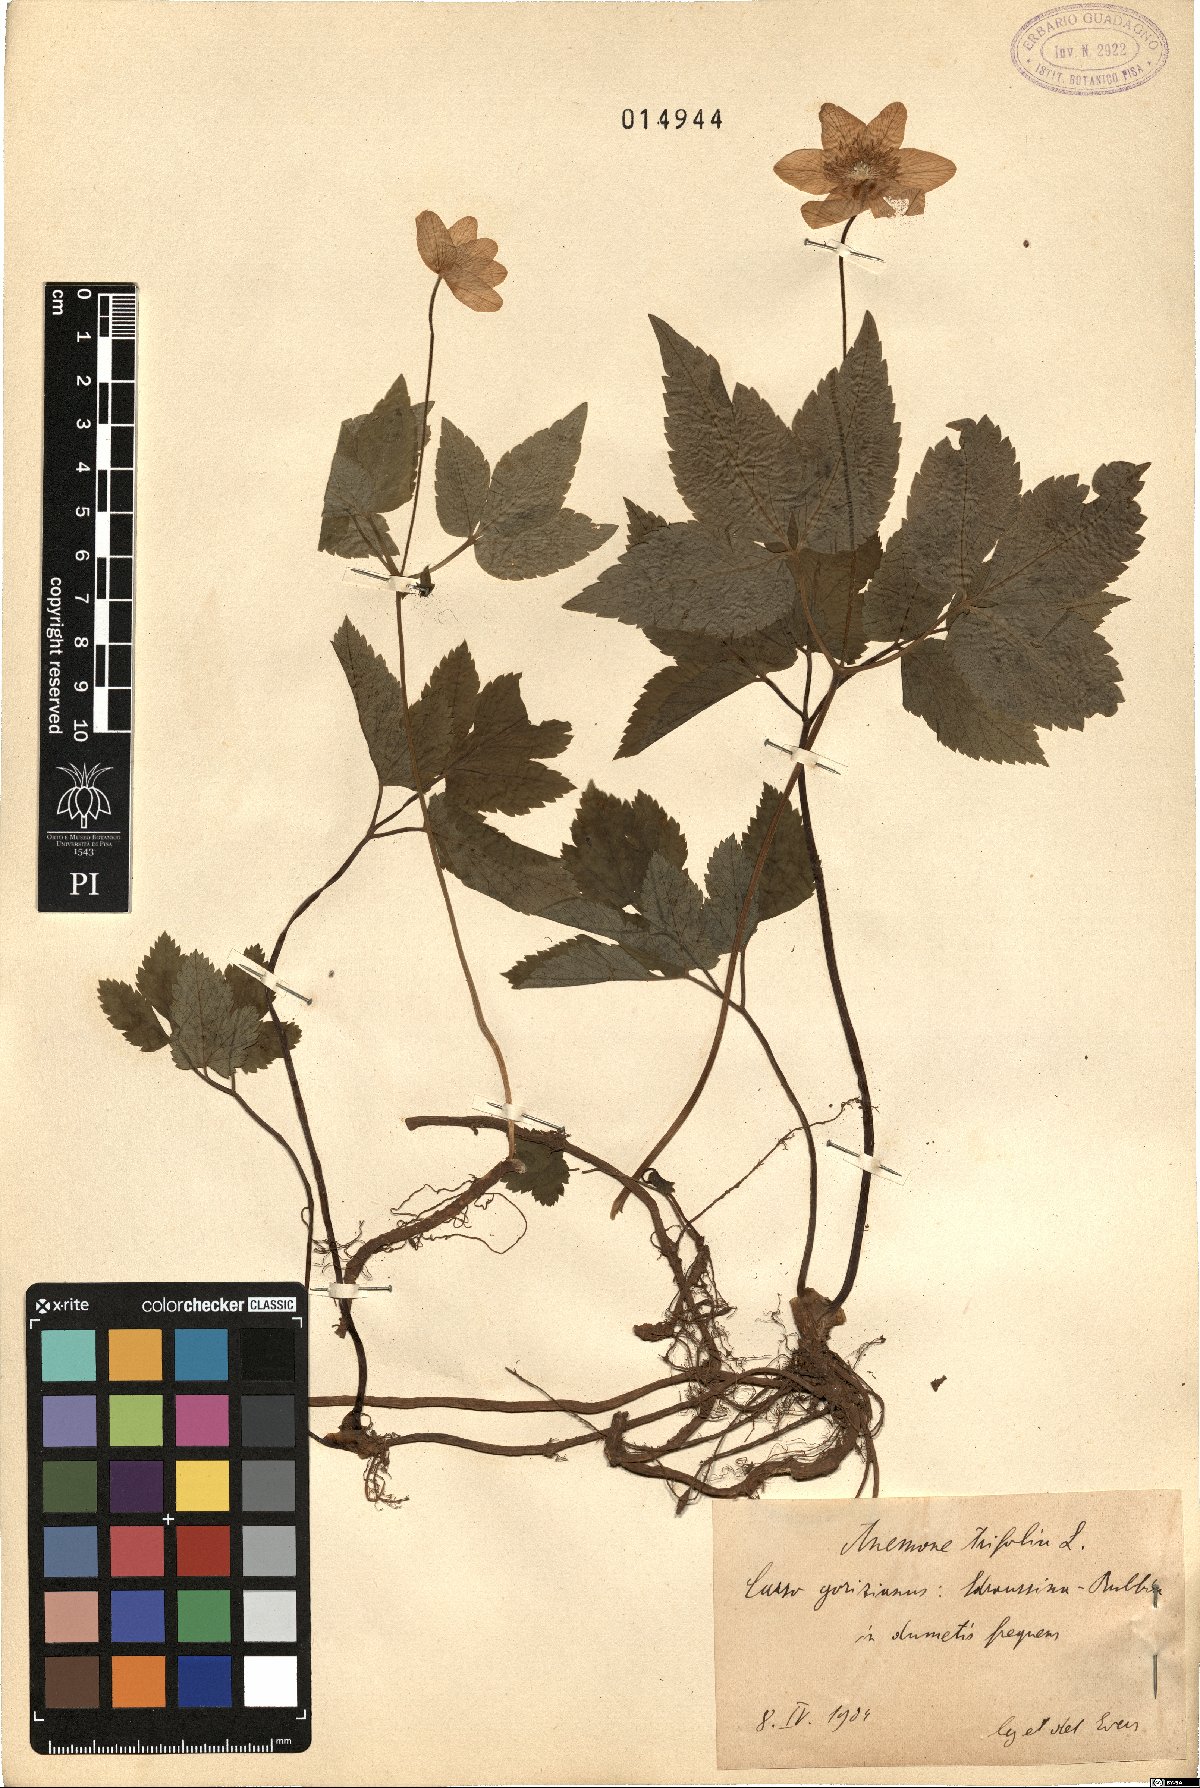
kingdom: Plantae
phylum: Tracheophyta
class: Magnoliopsida
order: Ranunculales
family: Ranunculaceae
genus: Anemone
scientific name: Anemone trifolia
